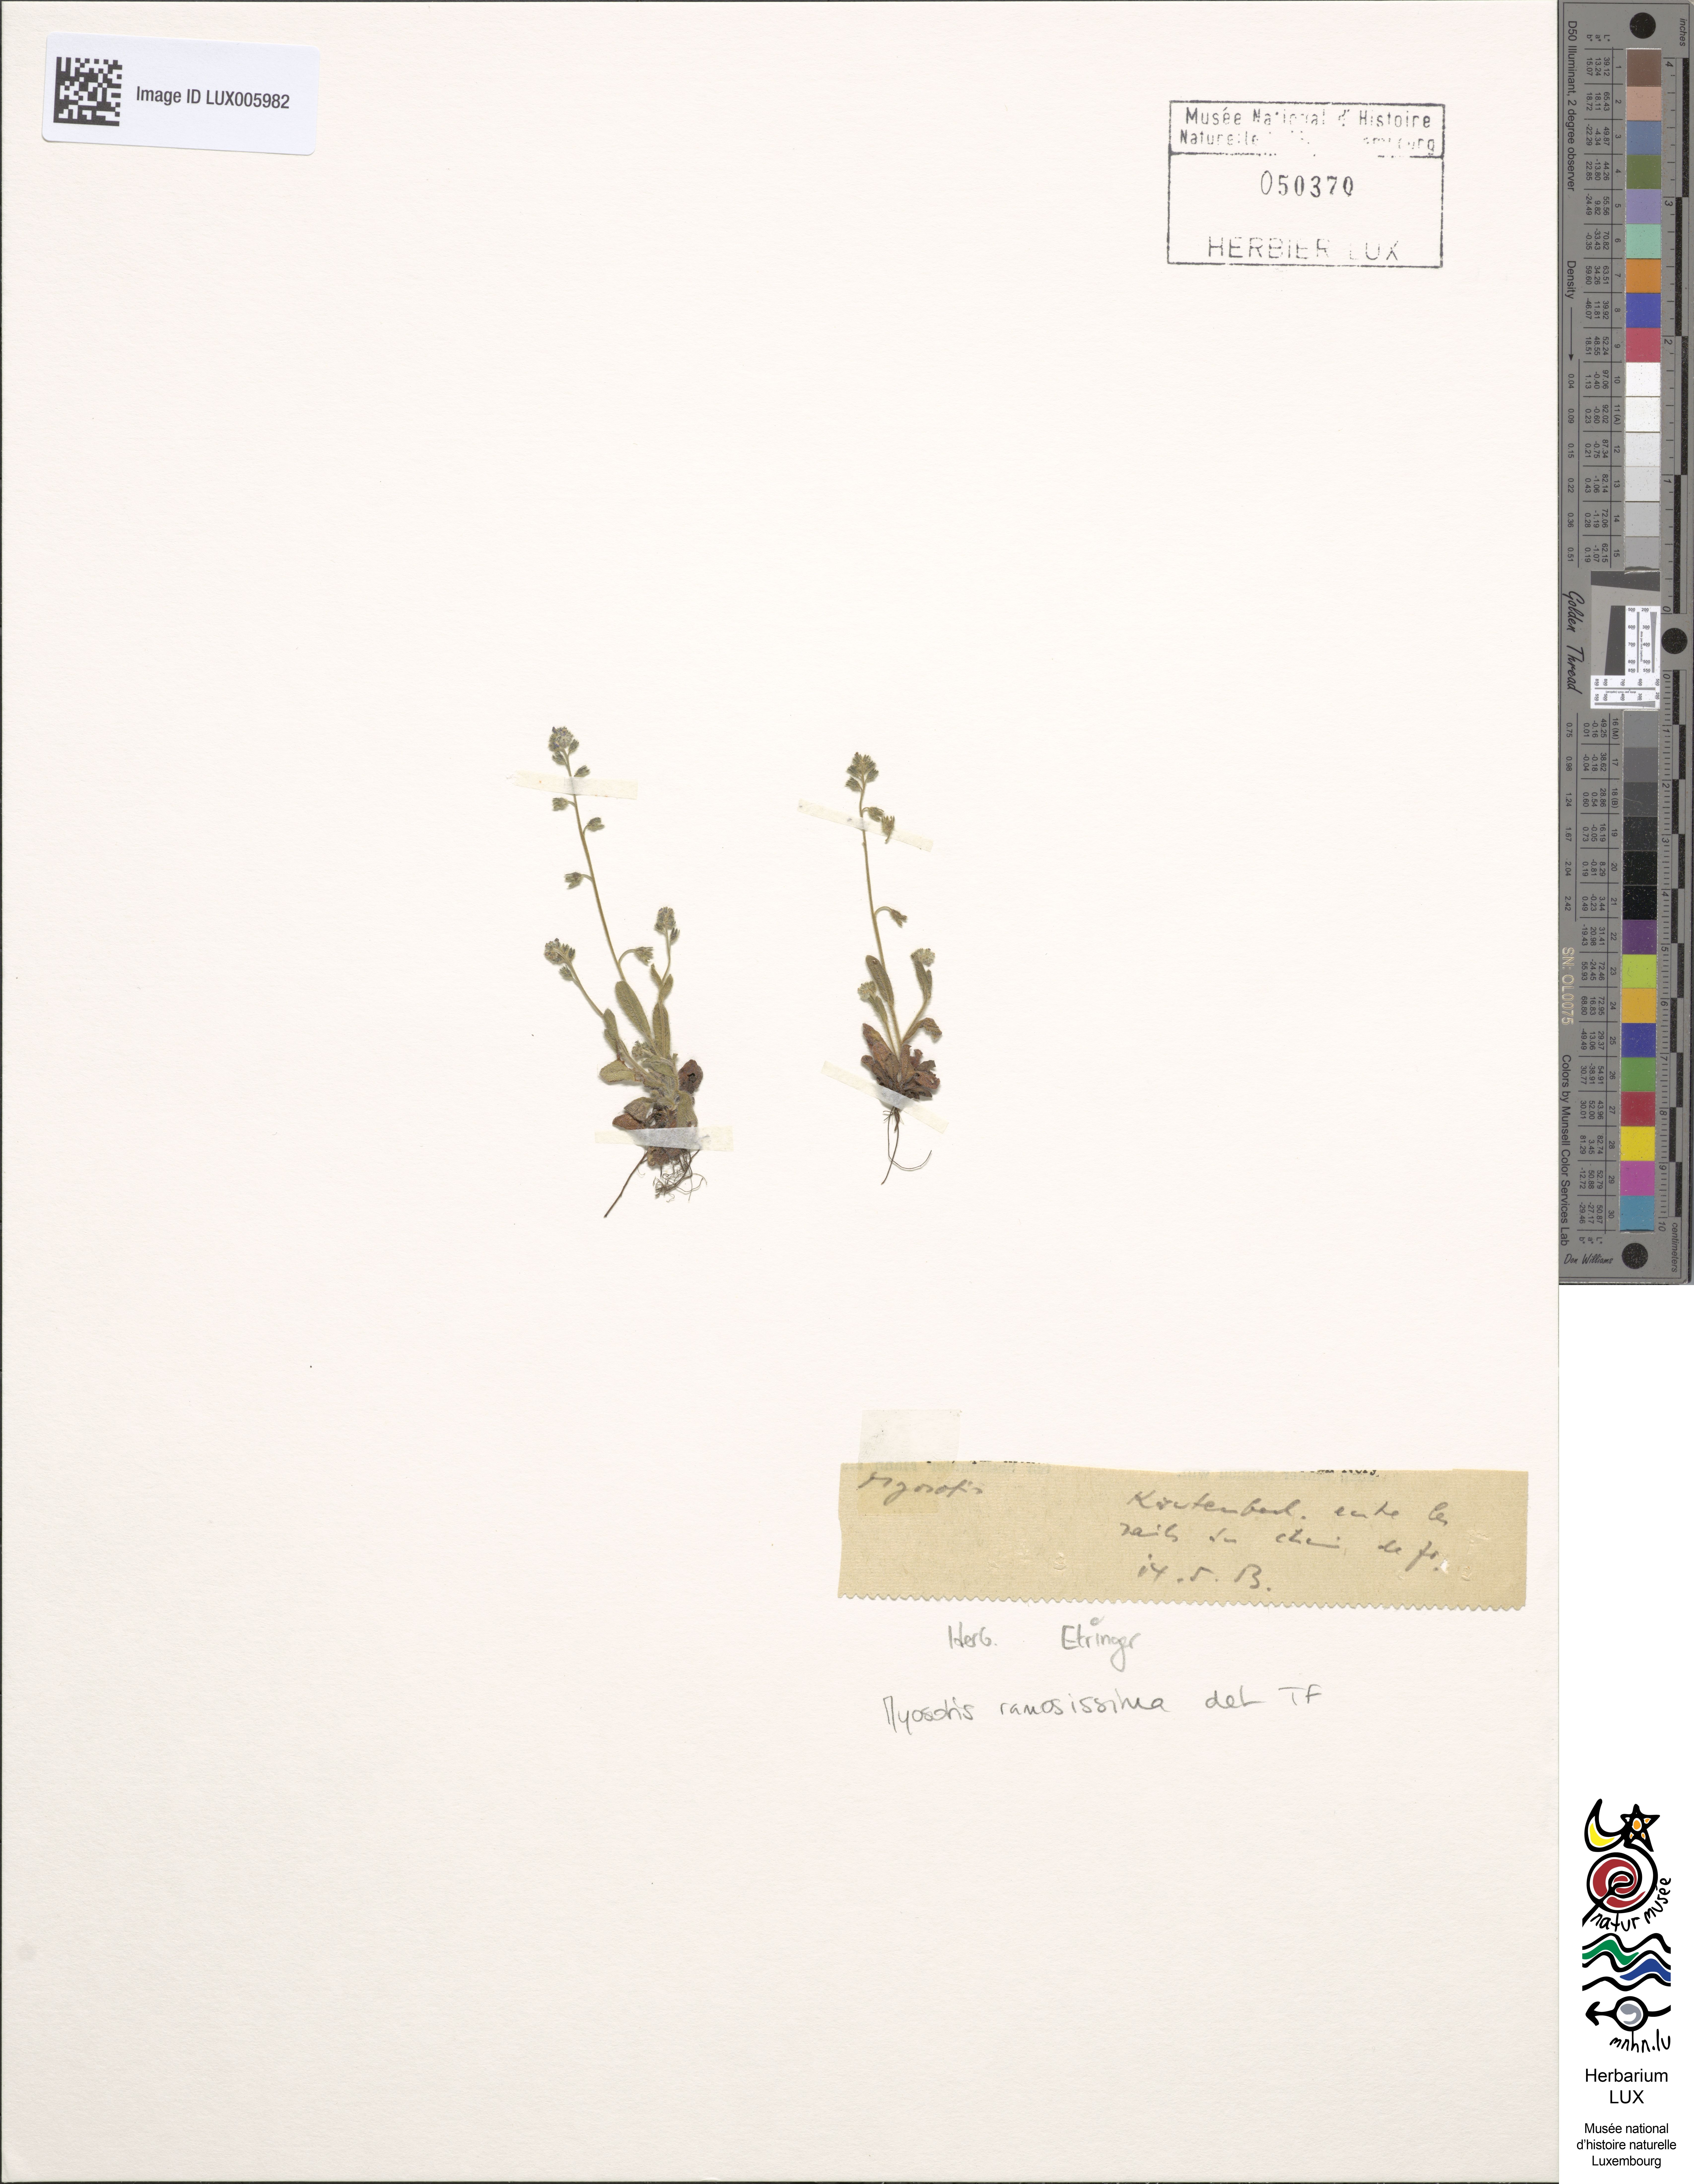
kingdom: Plantae
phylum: Tracheophyta
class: Magnoliopsida
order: Boraginales
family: Boraginaceae
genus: Myosotis
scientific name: Myosotis ramosissima
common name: Early forget-me-not
